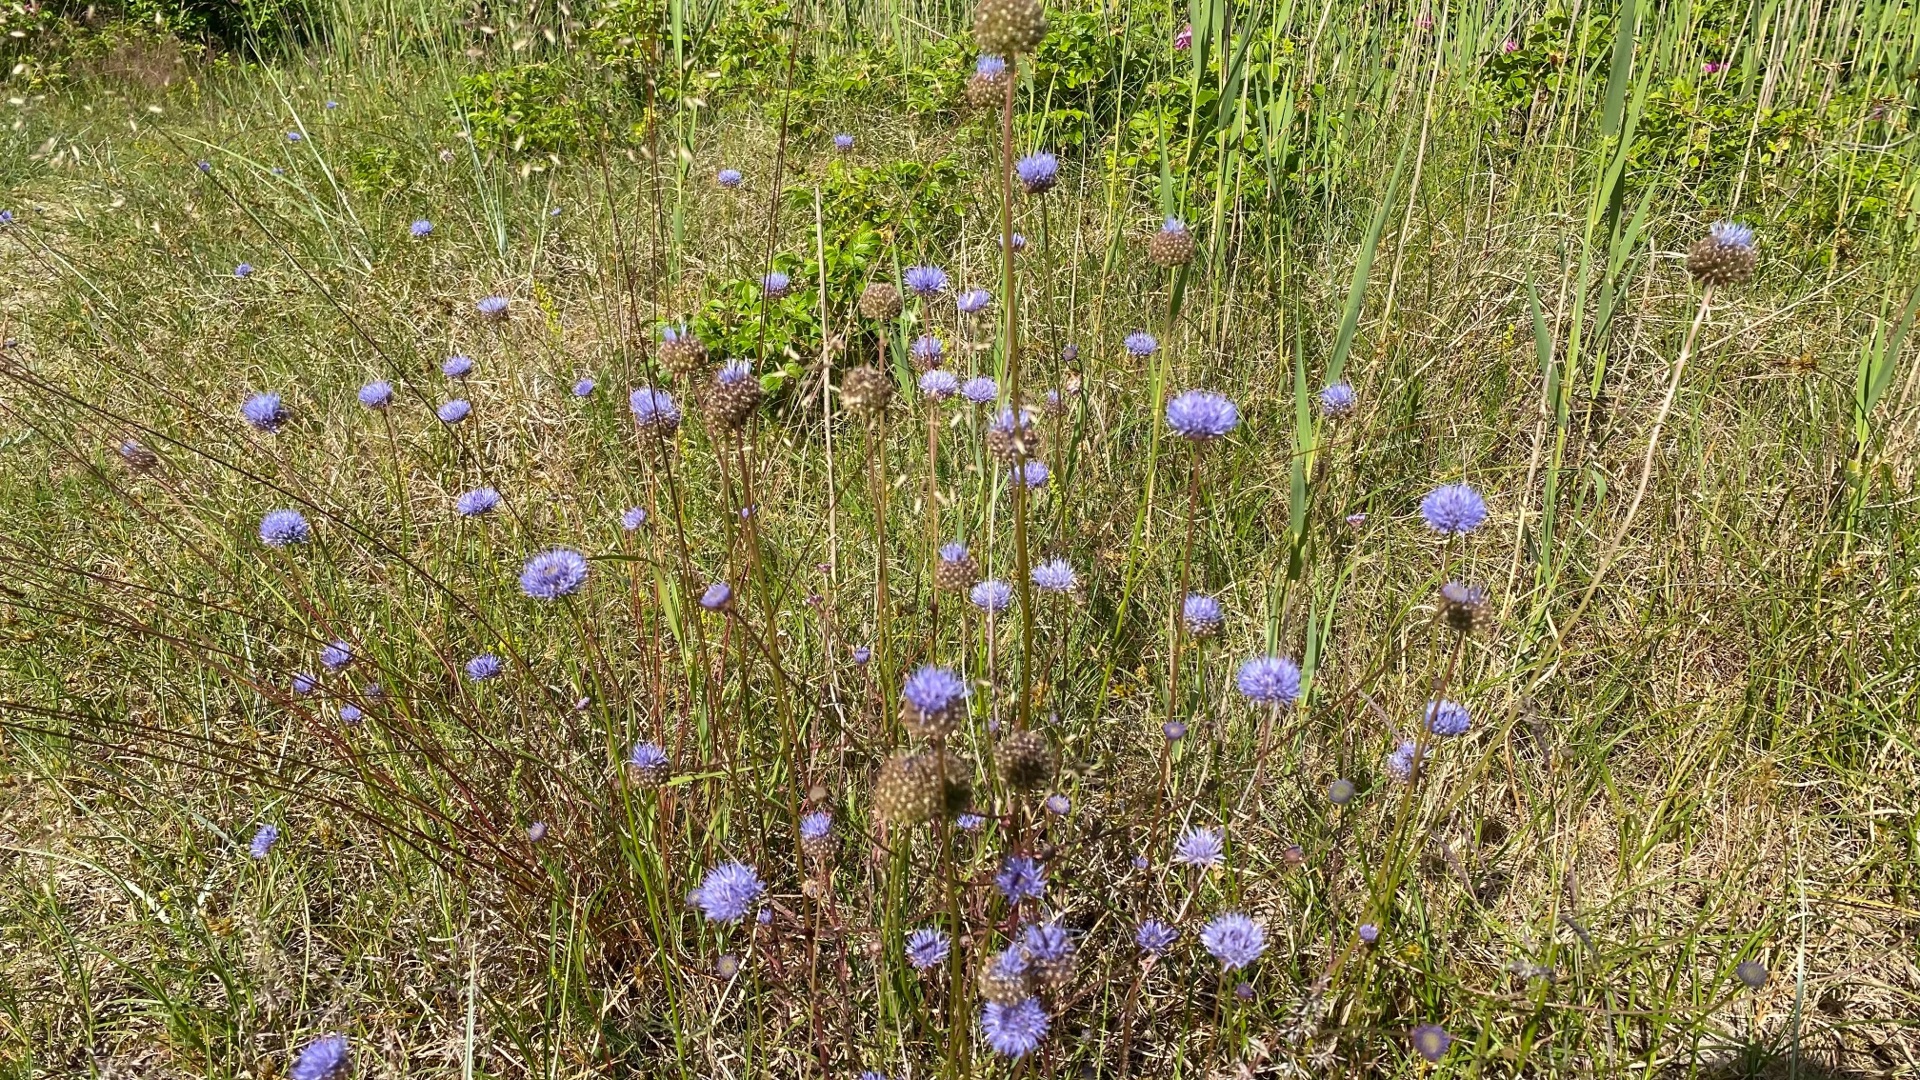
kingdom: Plantae
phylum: Tracheophyta
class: Magnoliopsida
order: Asterales
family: Campanulaceae
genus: Jasione
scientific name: Jasione montana
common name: Blåmunke
